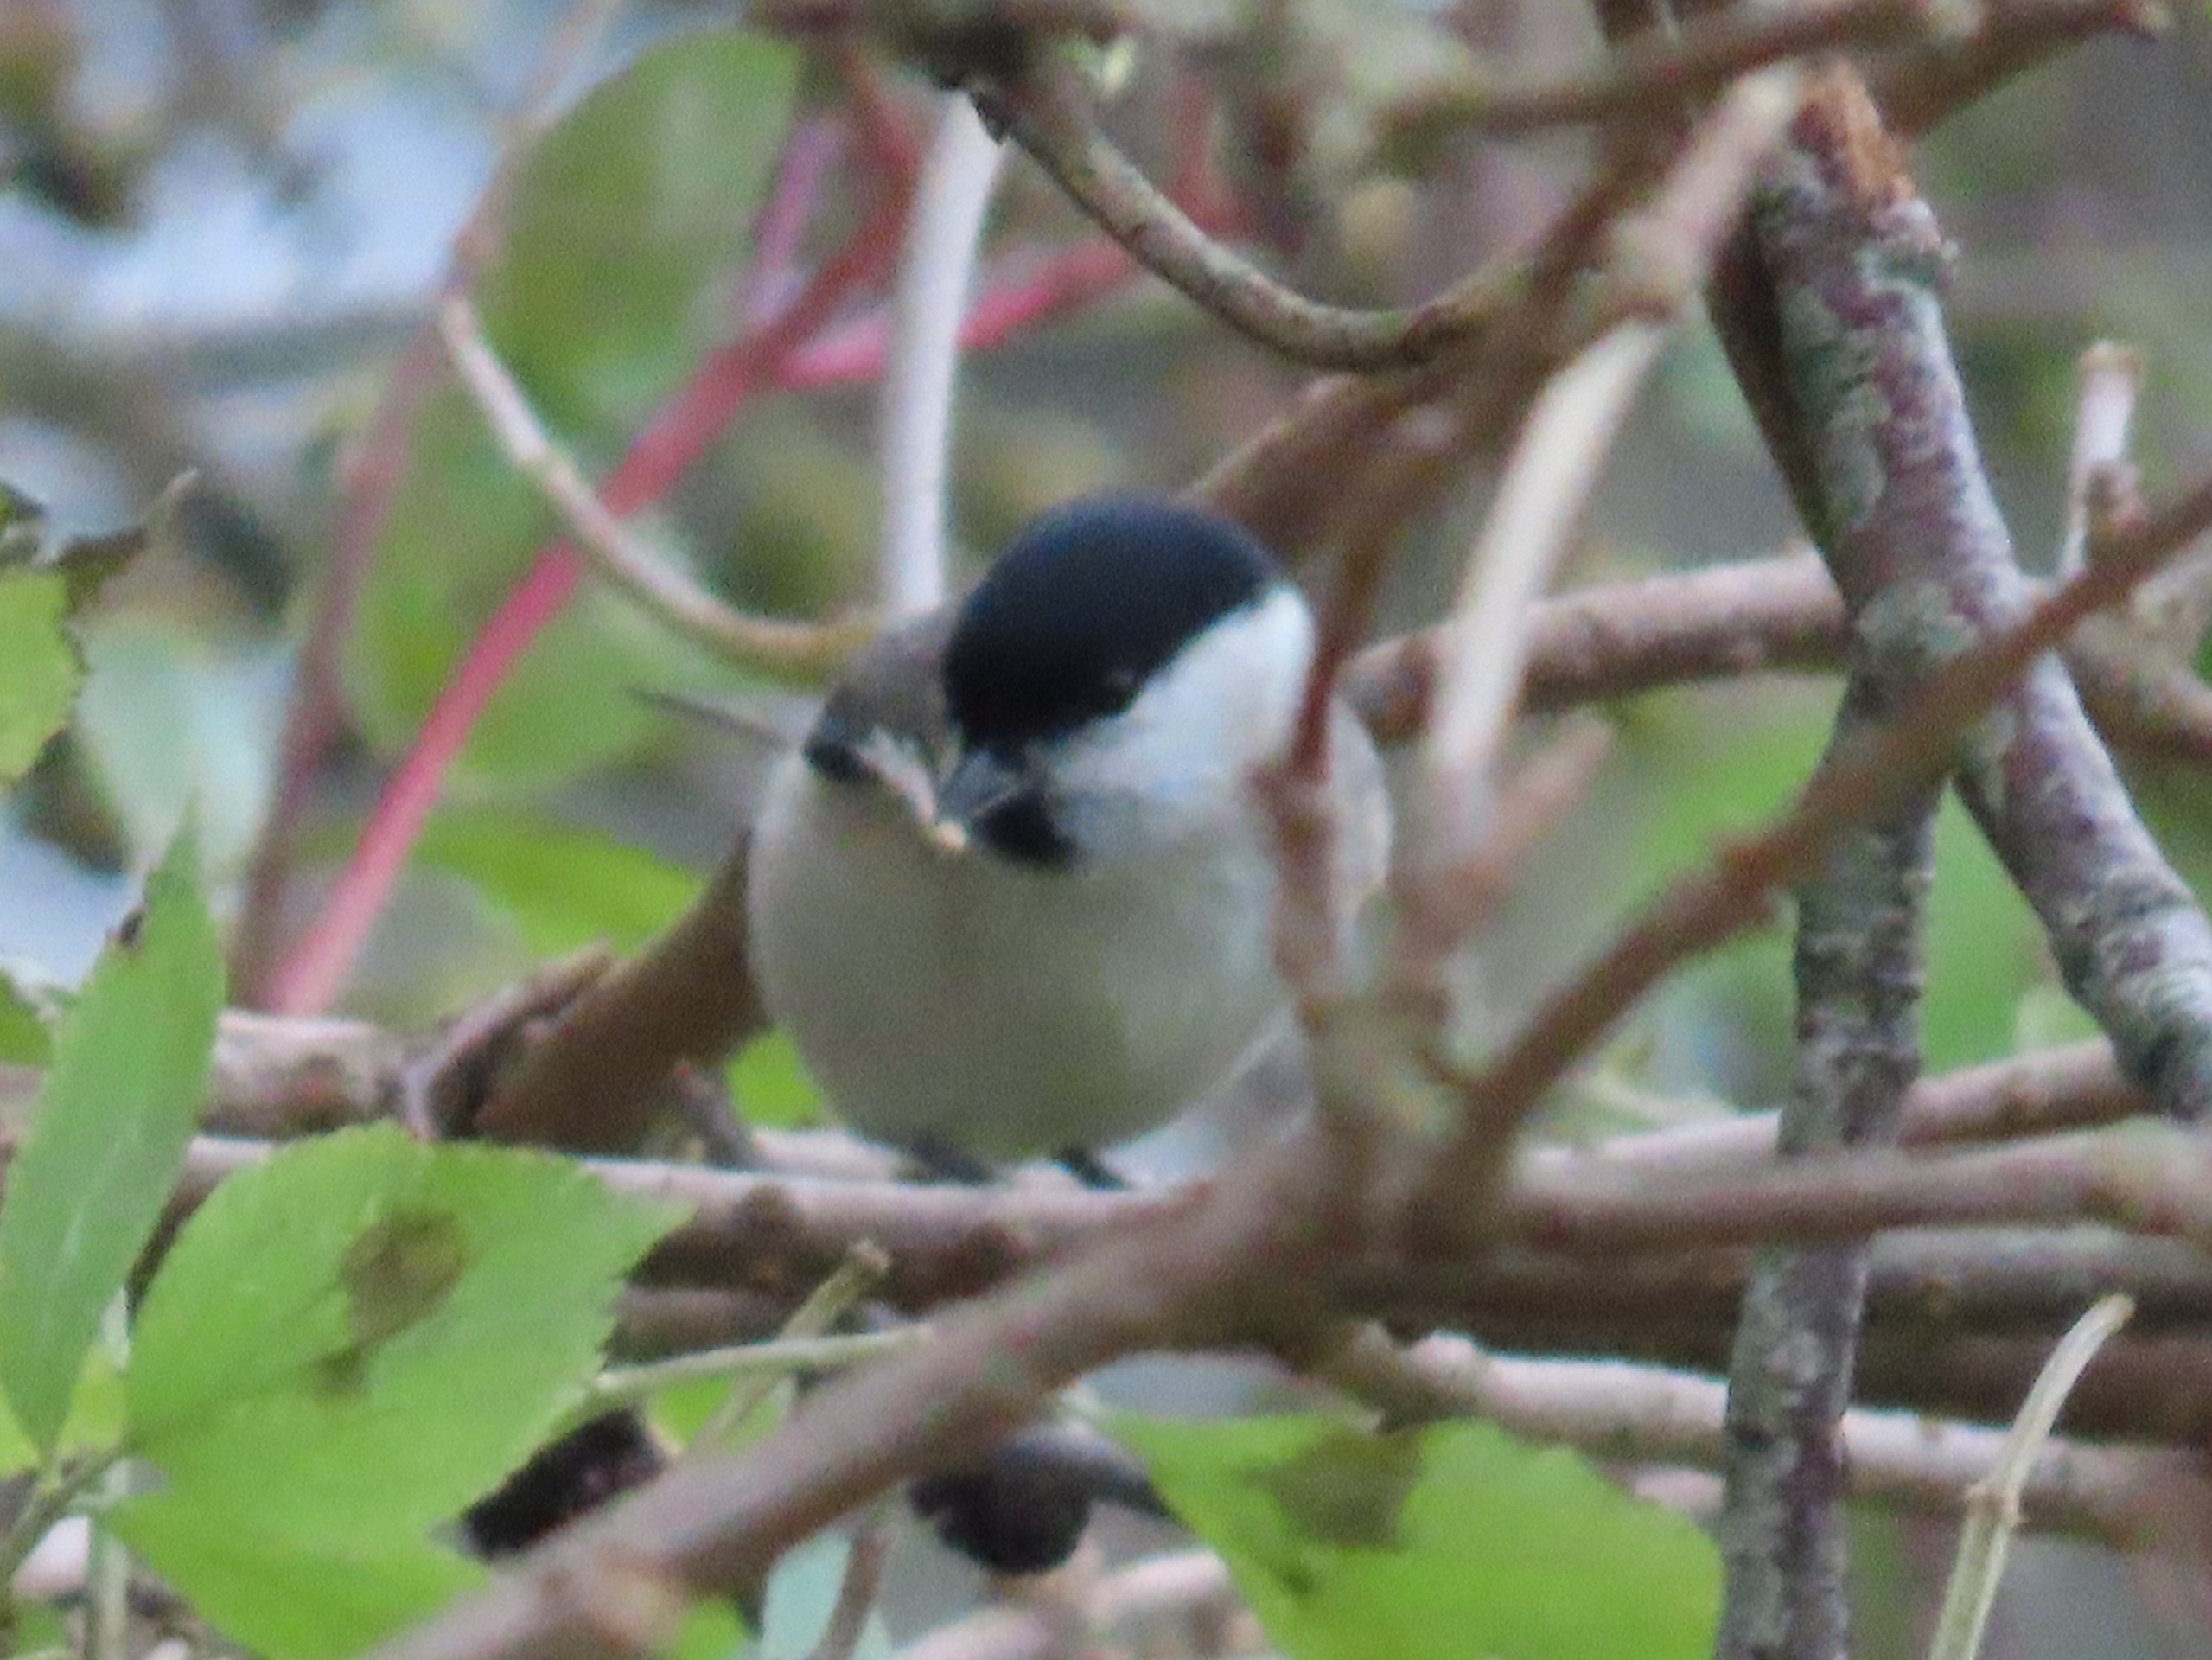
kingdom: Animalia
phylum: Chordata
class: Aves
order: Passeriformes
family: Paridae
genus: Poecile
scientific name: Poecile palustris
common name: Sumpmejse
